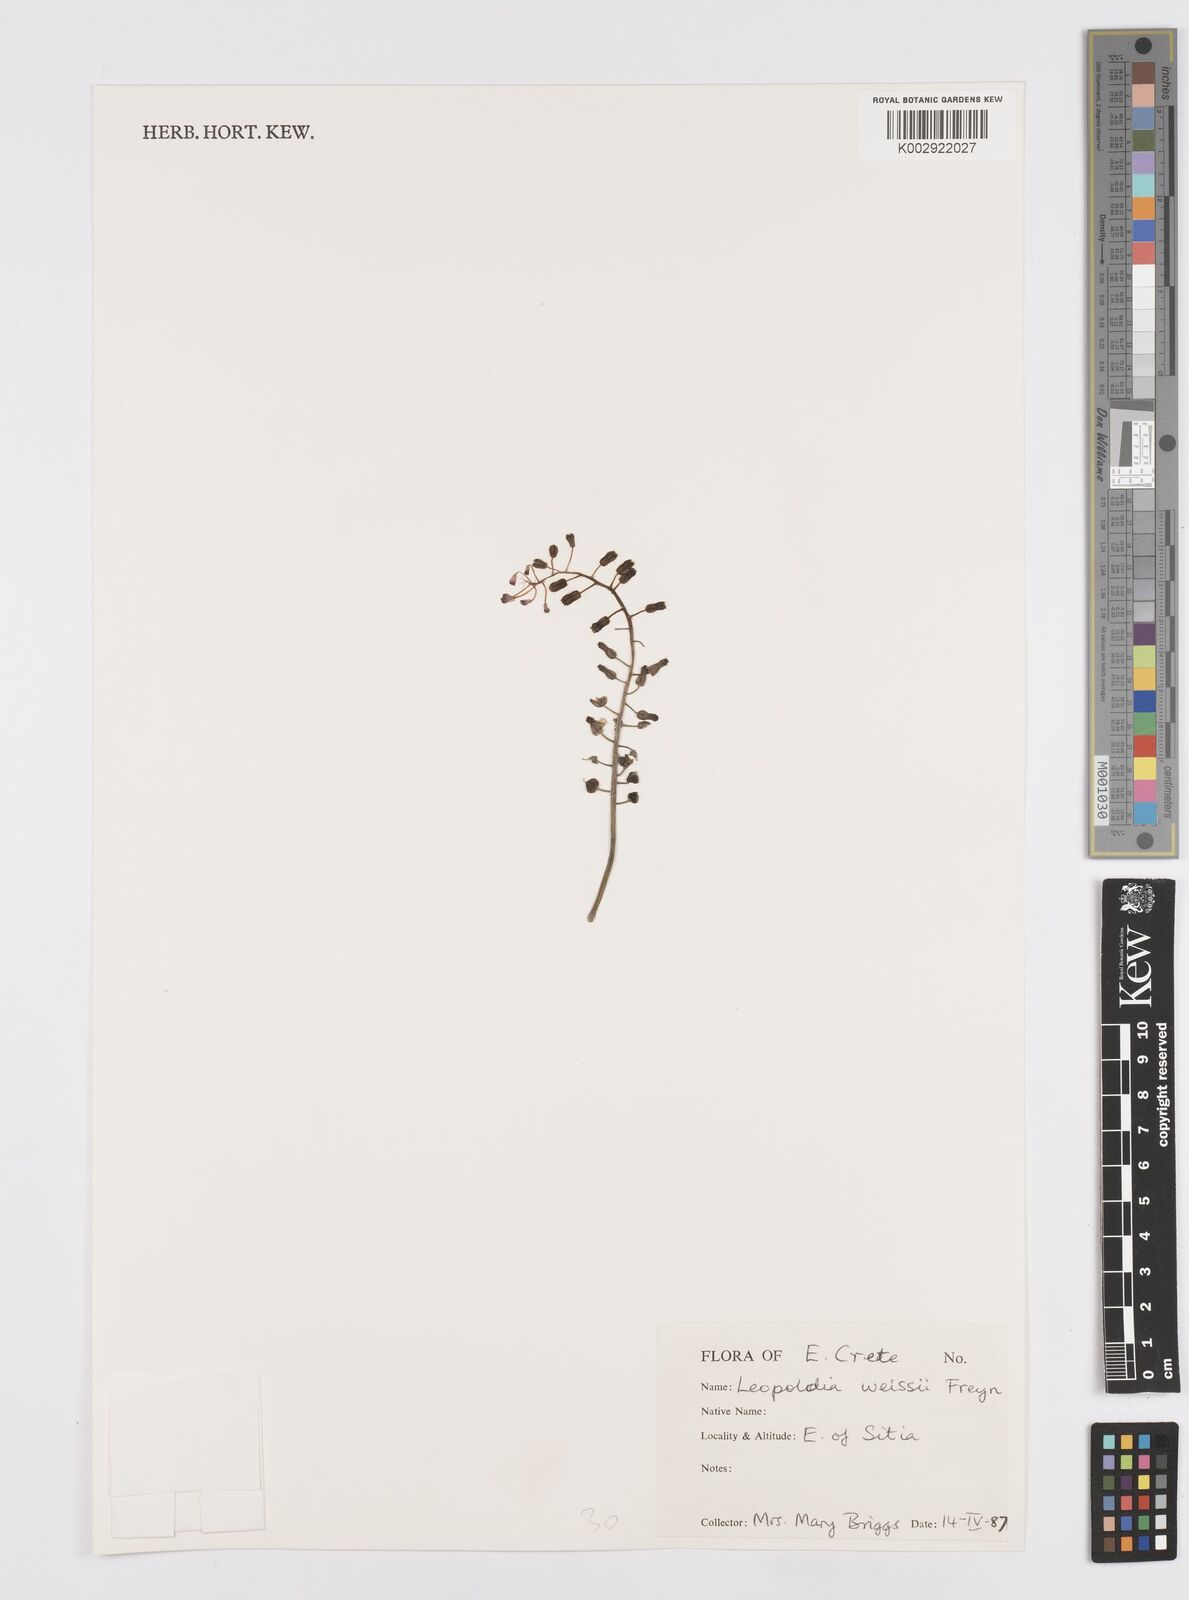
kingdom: Plantae
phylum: Tracheophyta
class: Liliopsida
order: Asparagales
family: Asparagaceae
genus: Muscari
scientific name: Muscari weissii
